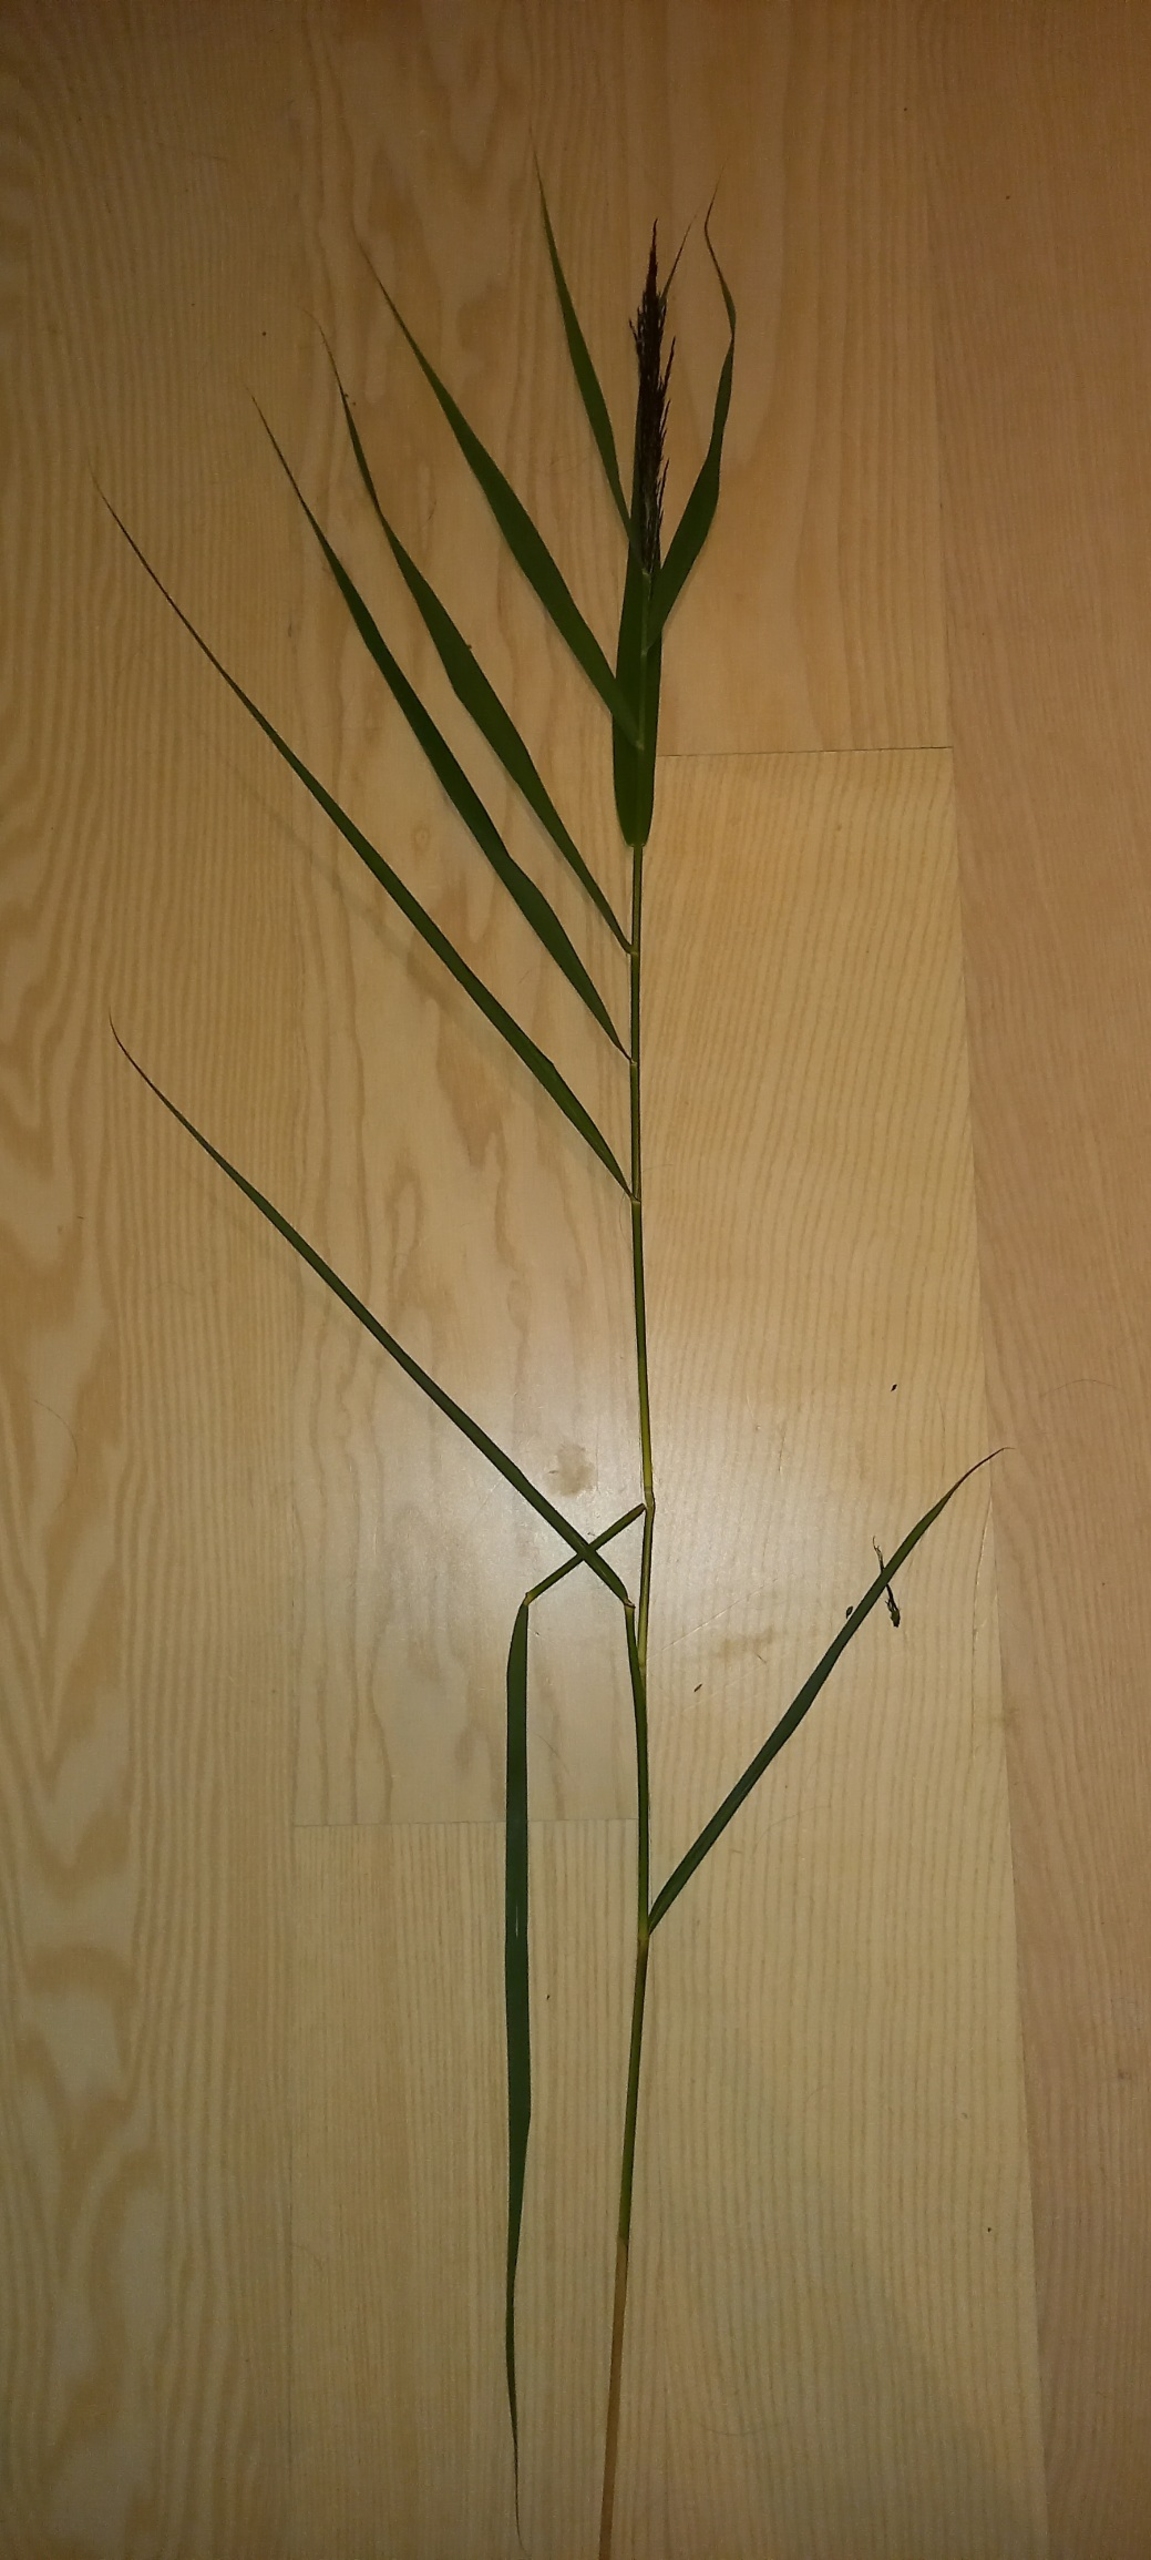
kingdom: Plantae
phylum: Tracheophyta
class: Liliopsida
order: Poales
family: Poaceae
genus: Phragmites
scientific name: Phragmites australis
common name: Tagrør
